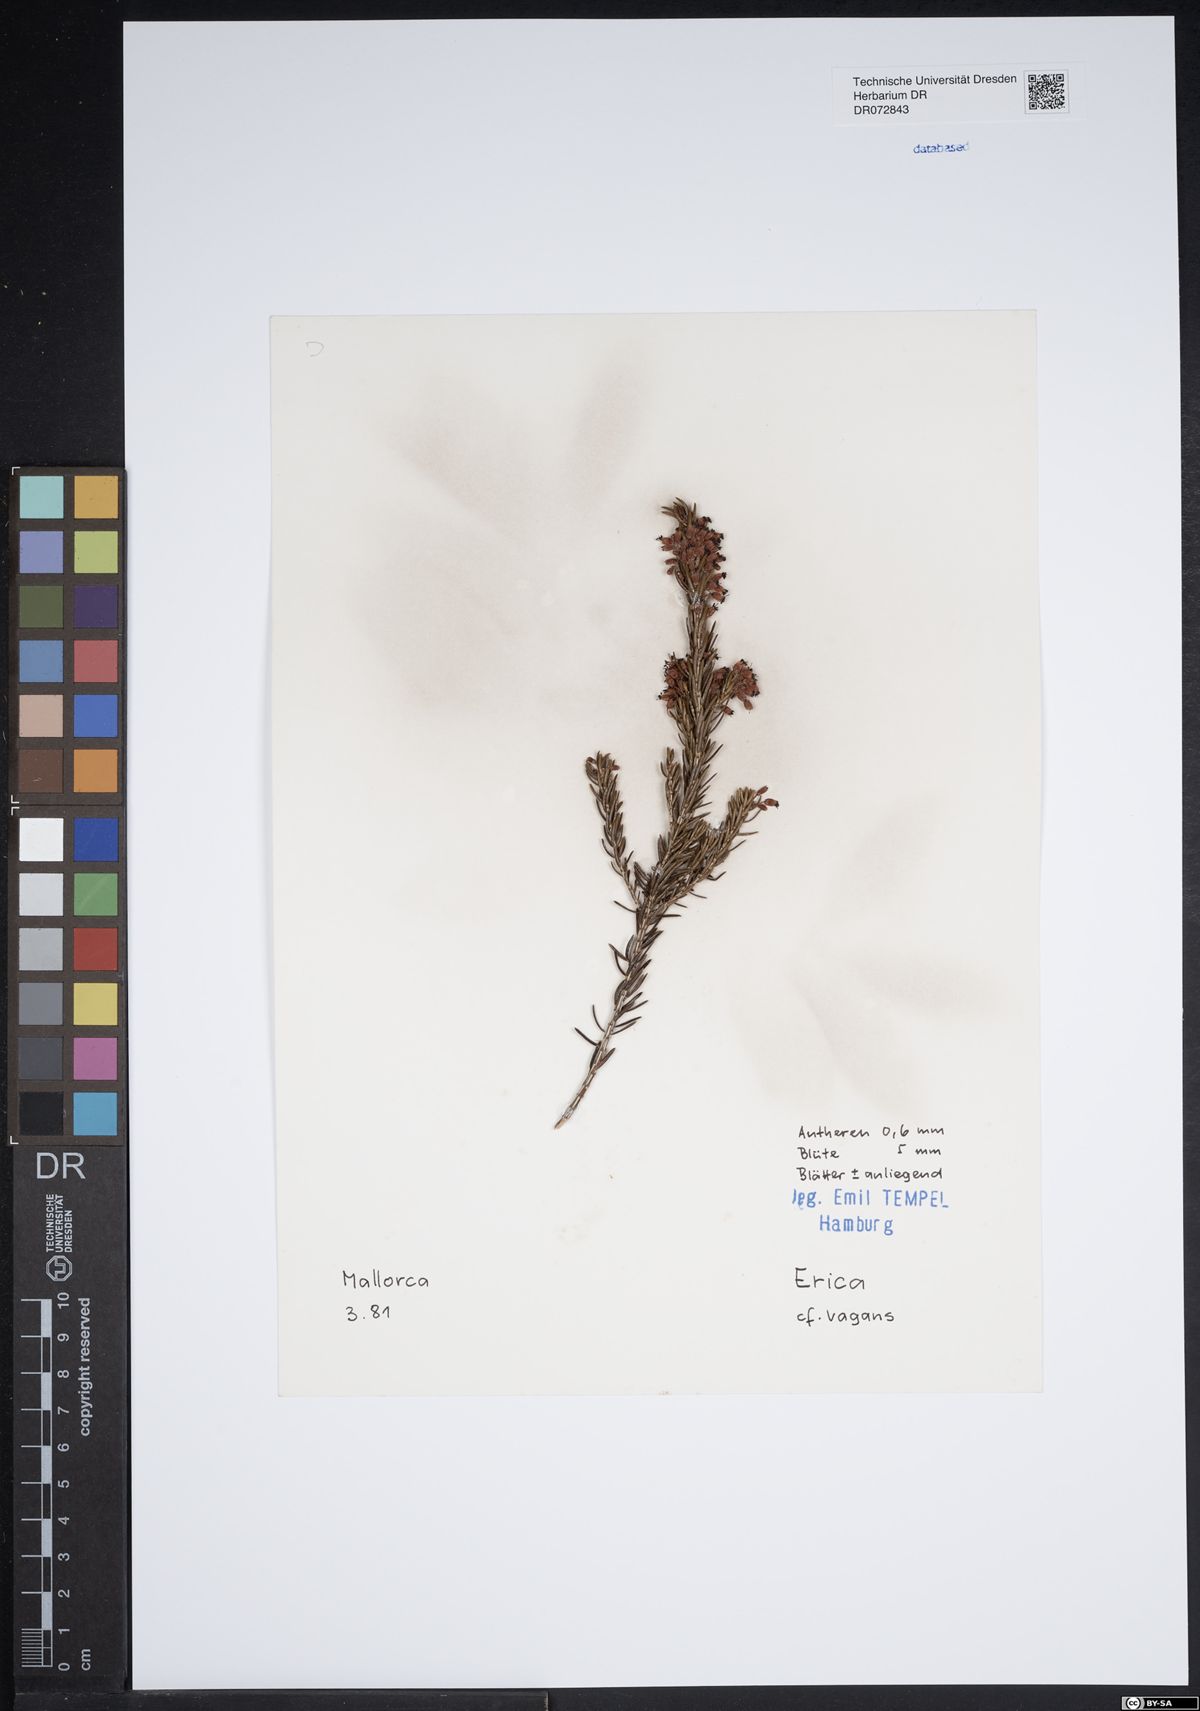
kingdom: Plantae
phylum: Tracheophyta
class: Magnoliopsida
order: Ericales
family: Ericaceae
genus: Erica
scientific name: Erica vagans
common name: Cornish heath
